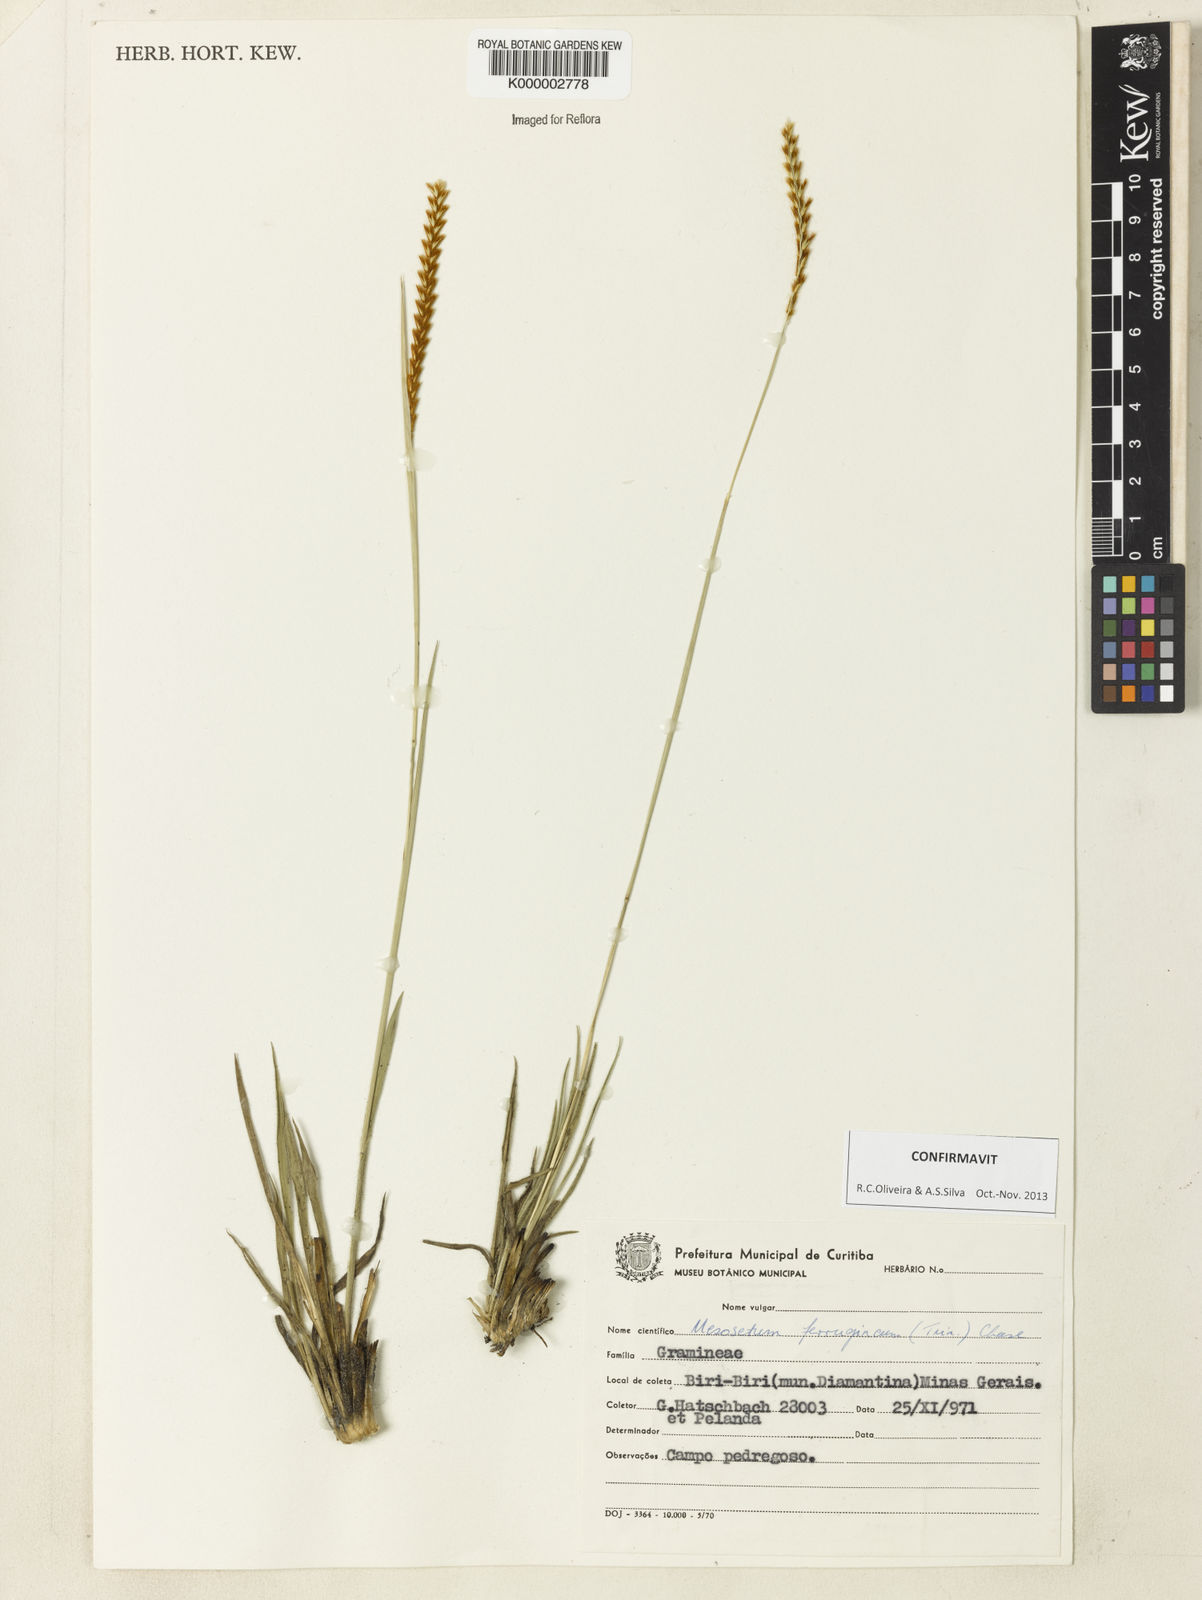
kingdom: Plantae
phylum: Tracheophyta
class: Liliopsida
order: Poales
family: Poaceae
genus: Mesosetum
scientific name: Mesosetum ferrugineum
